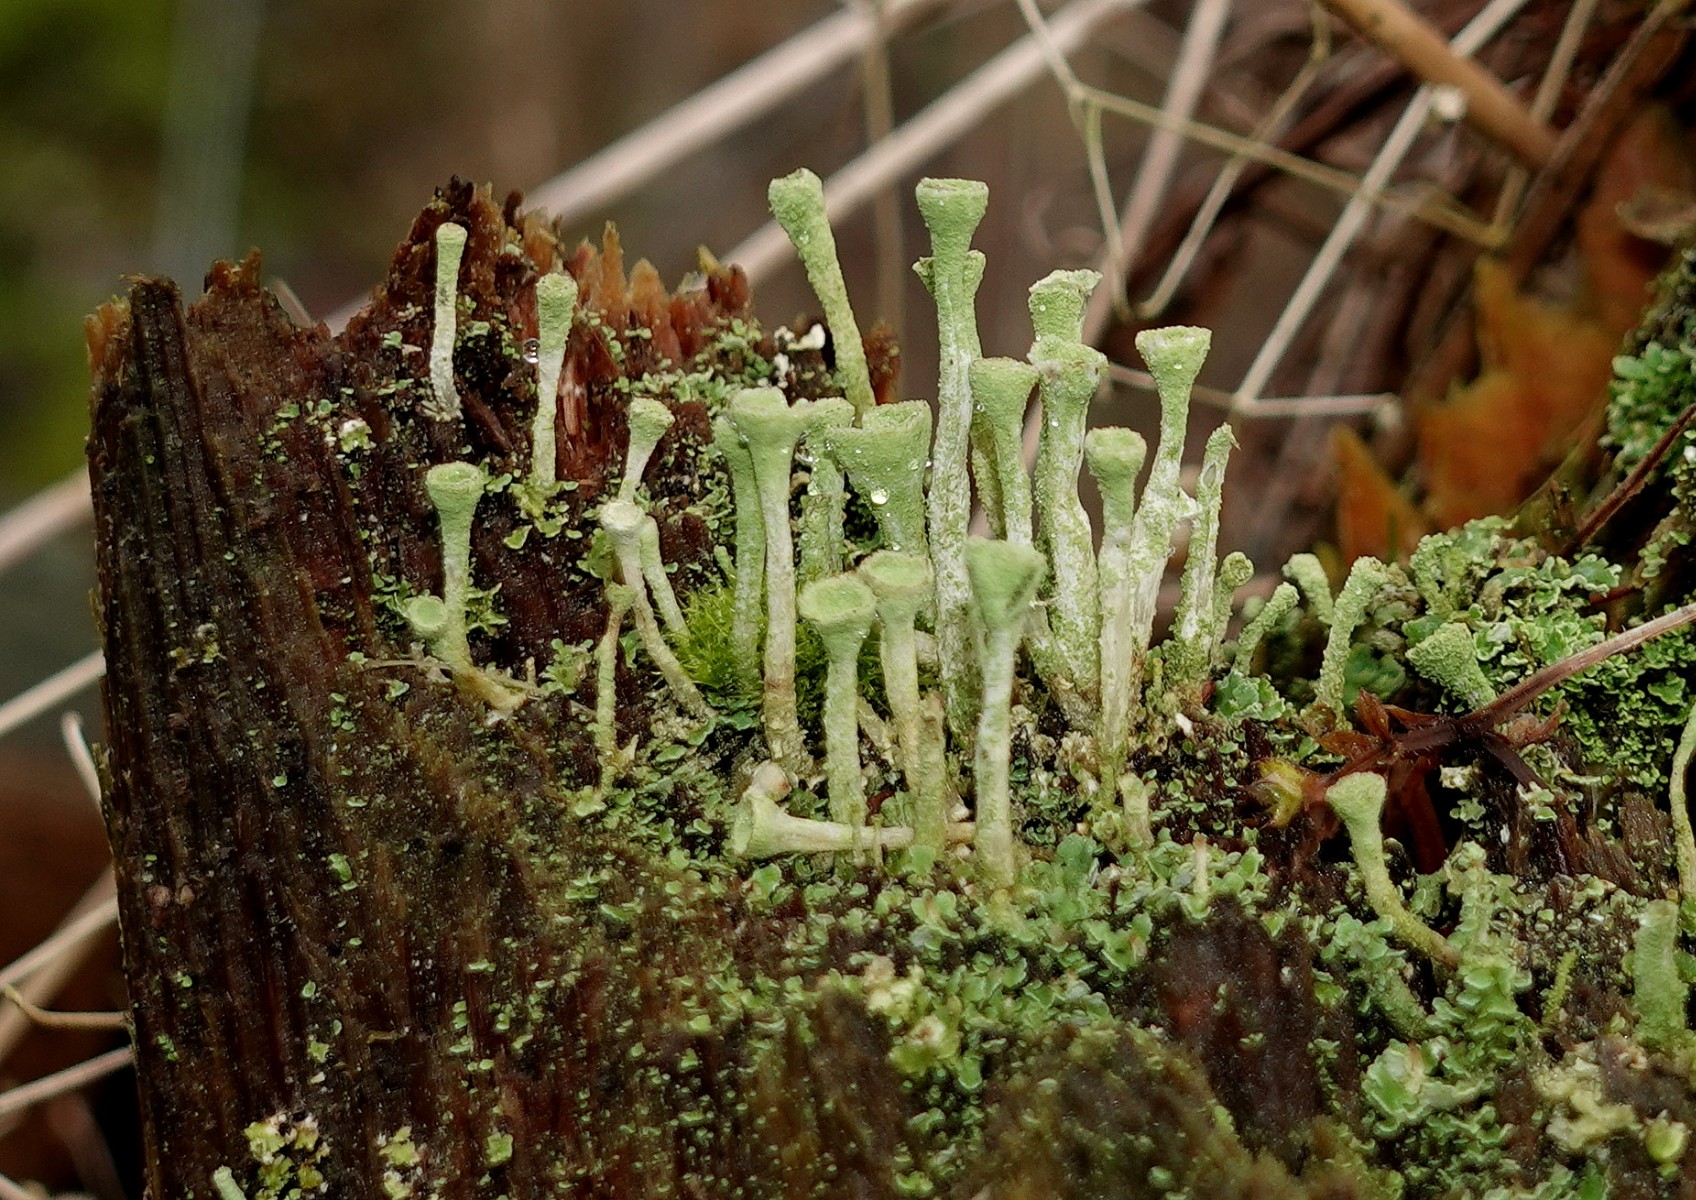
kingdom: Fungi
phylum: Ascomycota
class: Lecanoromycetes
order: Lecanorales
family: Cladoniaceae
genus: Cladonia
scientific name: Cladonia fimbriata
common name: bleggrøn bægerlav
